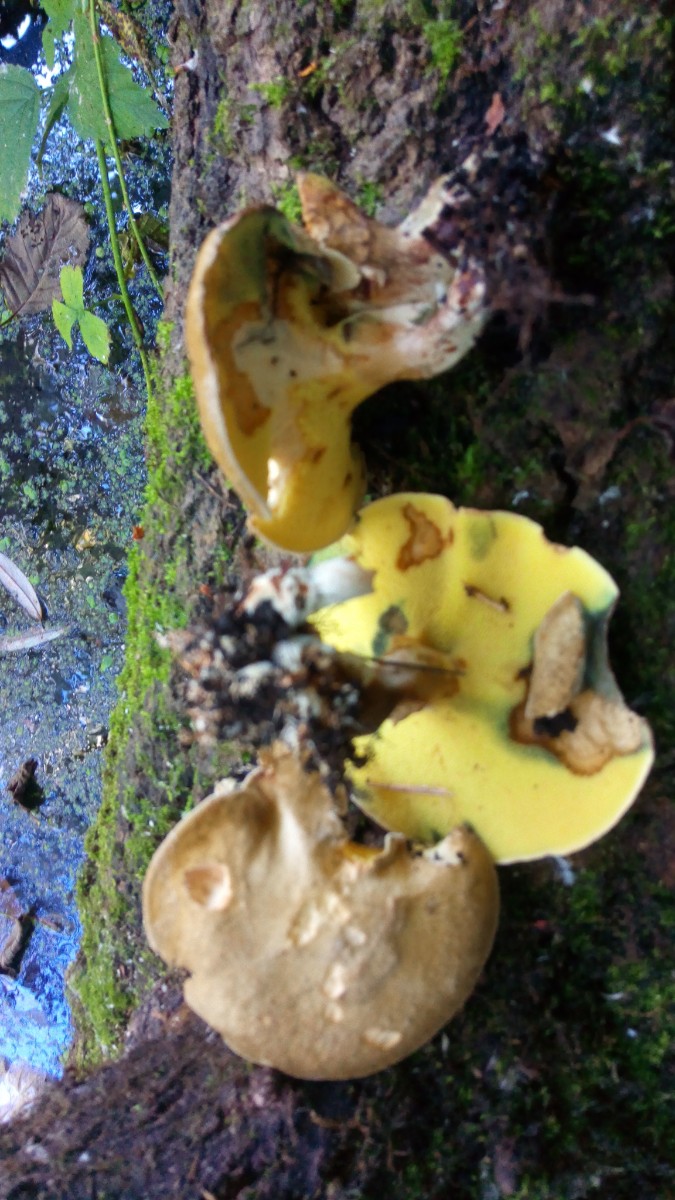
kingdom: Fungi
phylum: Basidiomycota
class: Agaricomycetes
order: Boletales
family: Paxillaceae
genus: Gyrodon
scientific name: Gyrodon lividus
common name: ellerørhat
